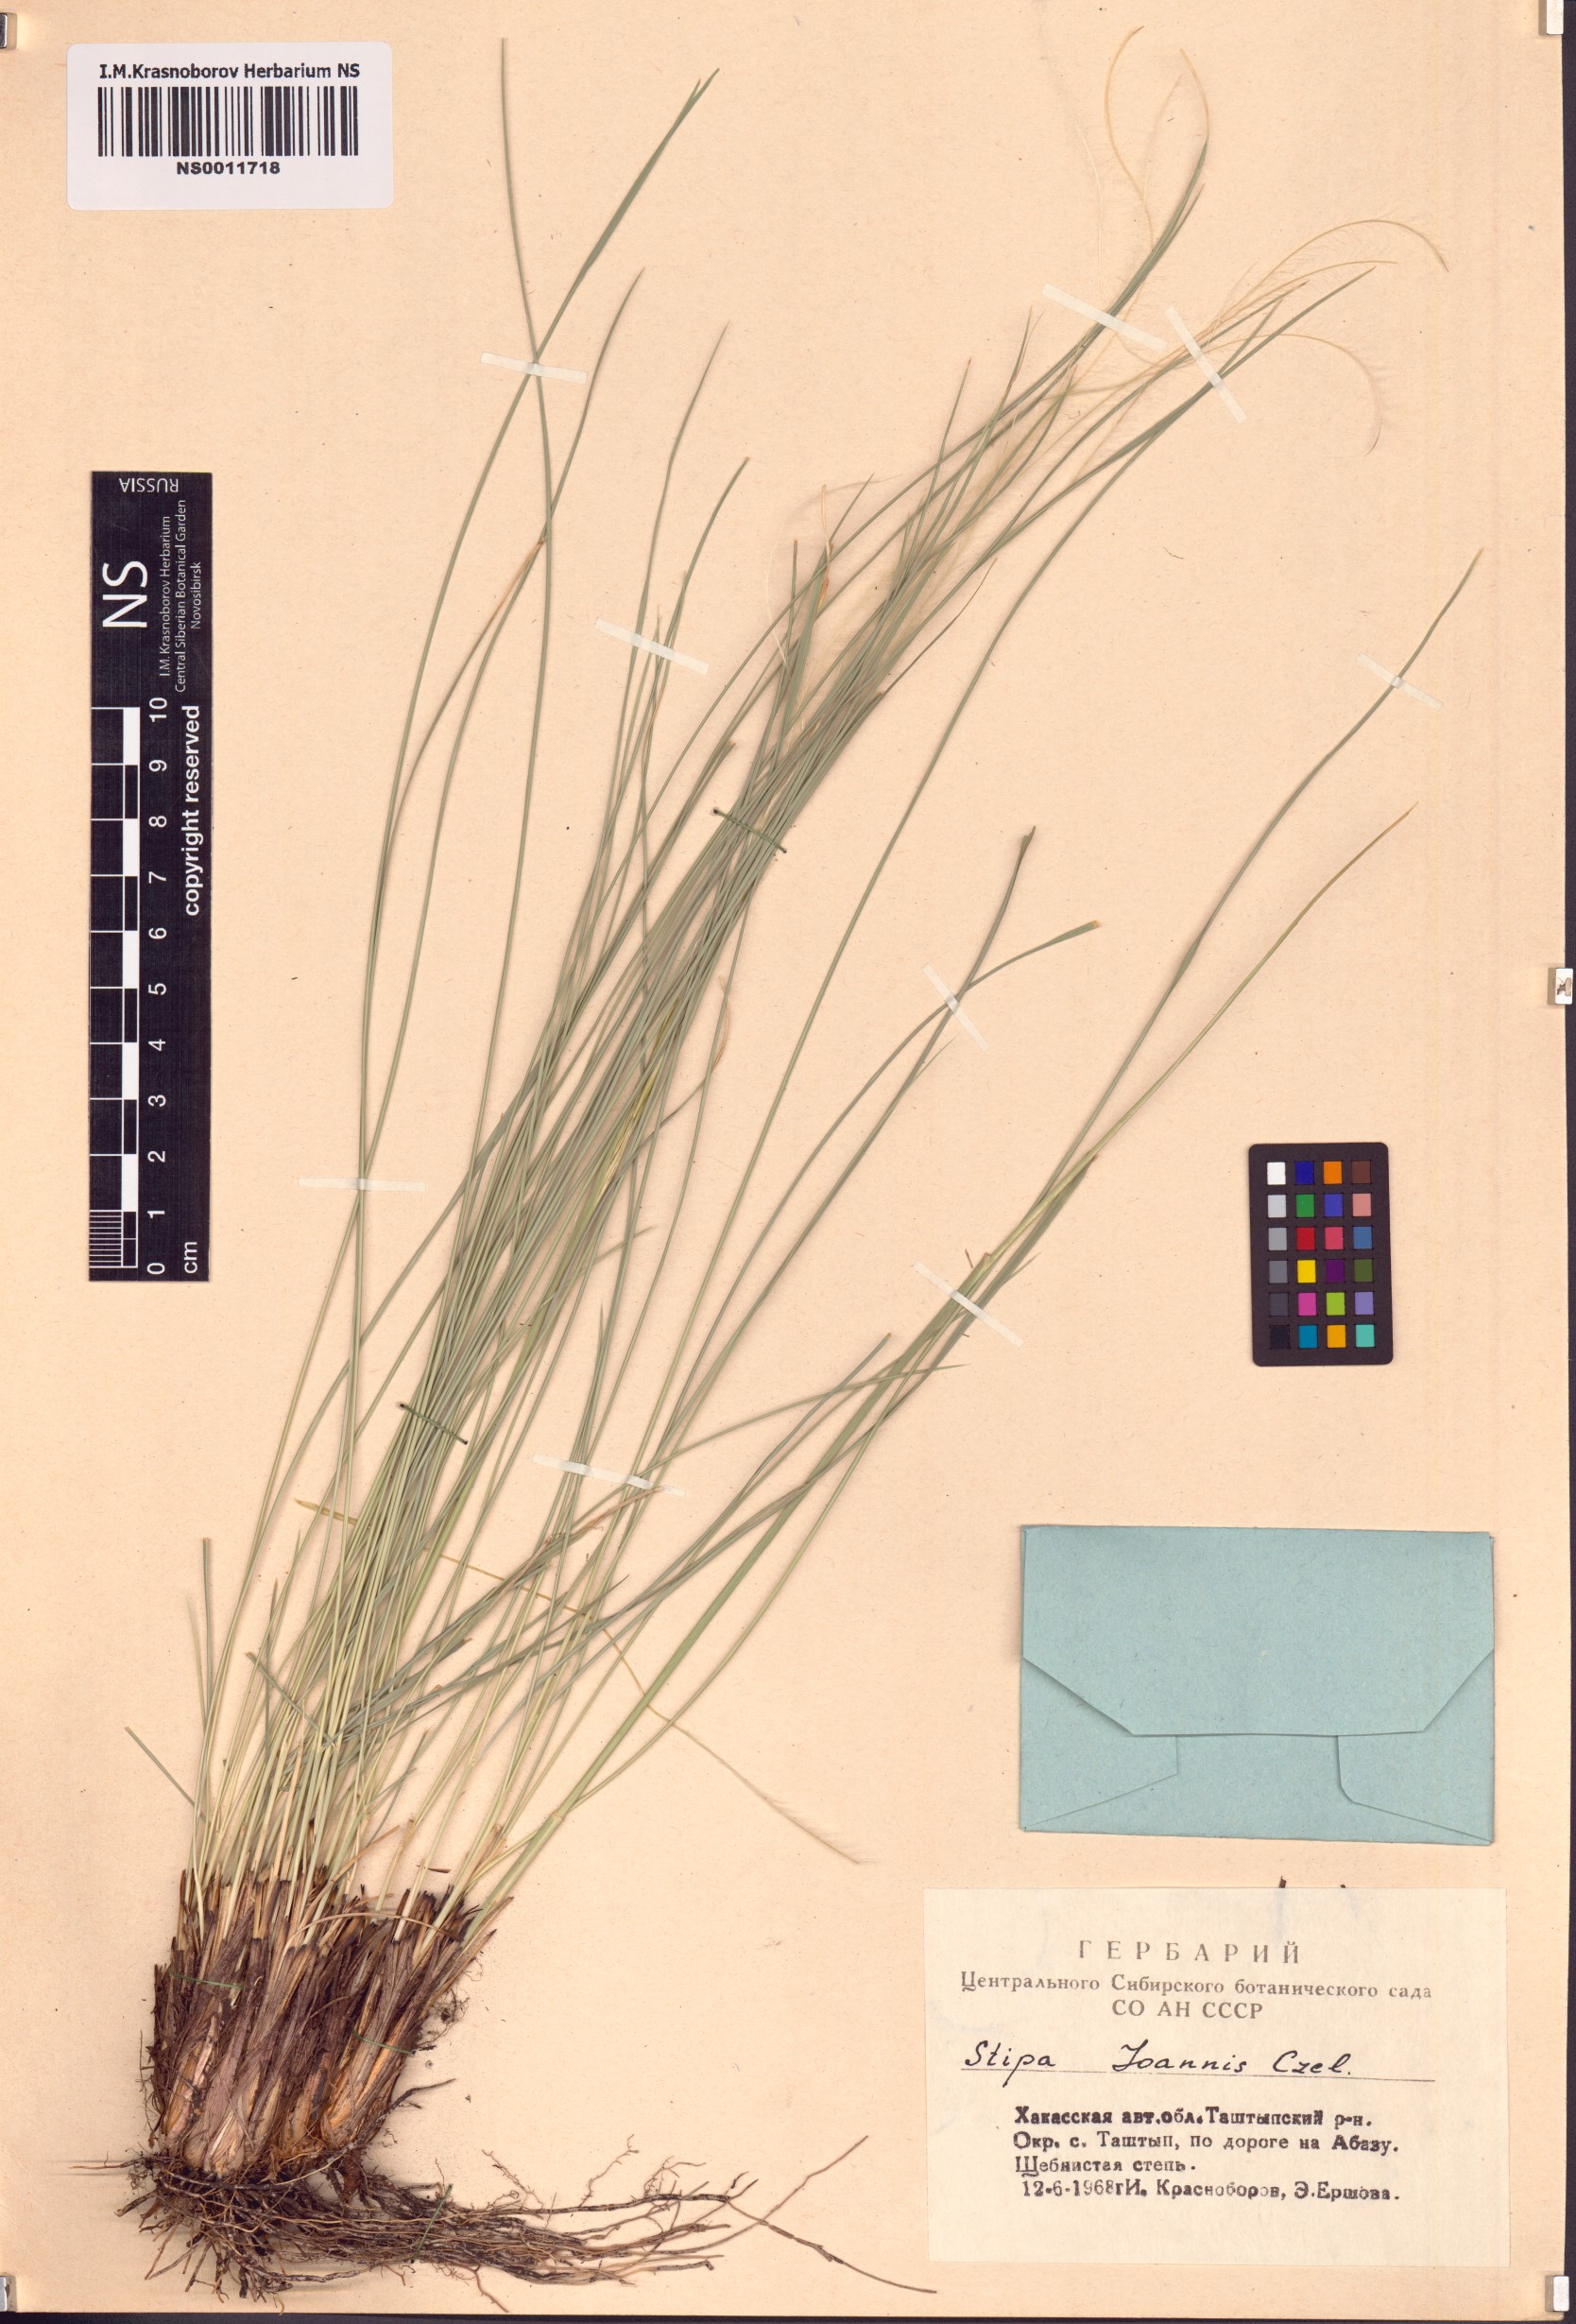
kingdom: Plantae
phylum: Tracheophyta
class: Liliopsida
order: Poales
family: Poaceae
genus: Stipa
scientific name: Stipa pennata
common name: European feather grass
